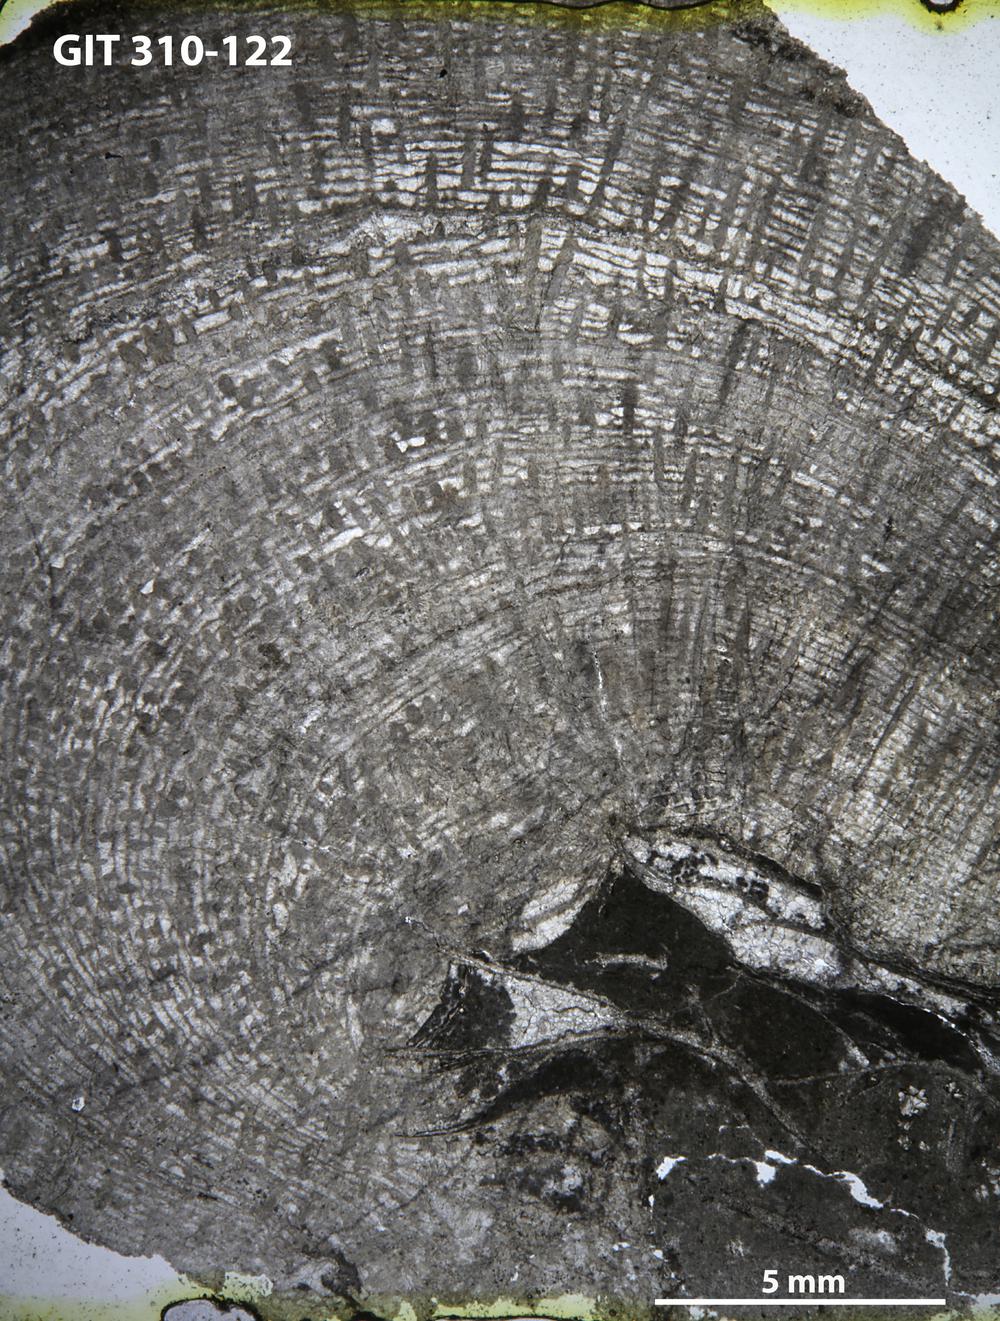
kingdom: Animalia
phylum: Porifera
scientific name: Porifera
